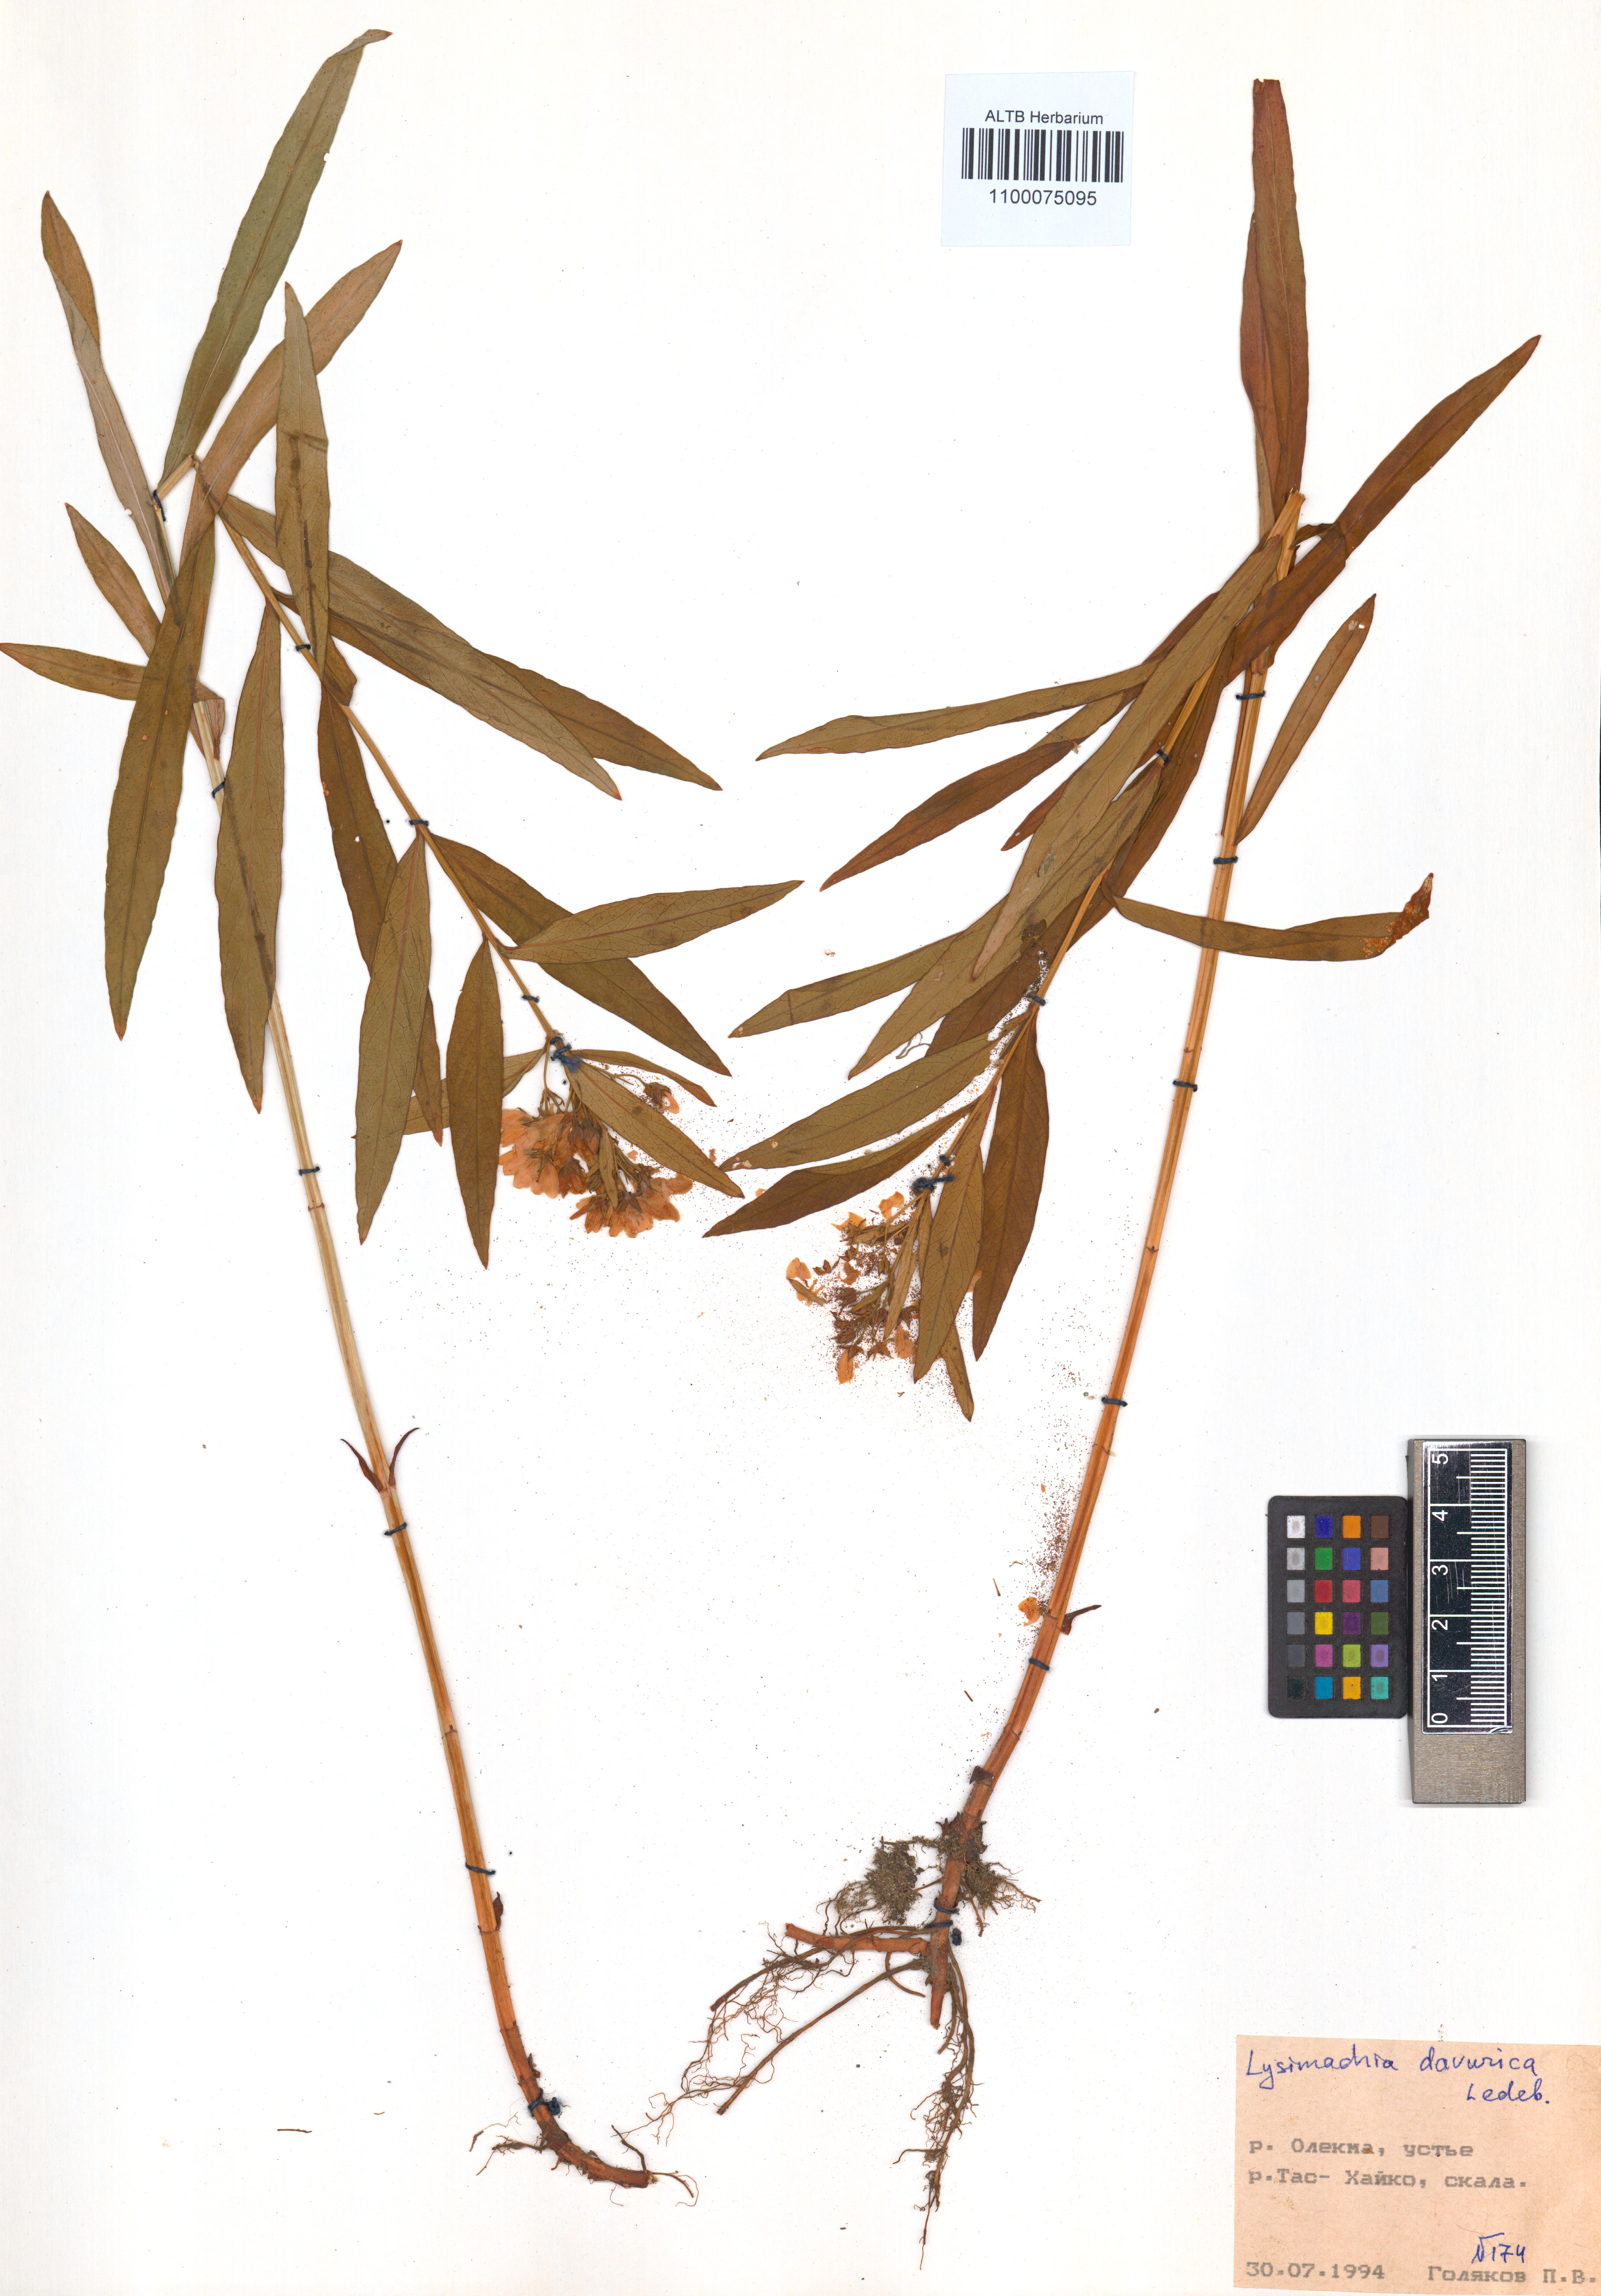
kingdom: Plantae
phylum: Tracheophyta
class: Magnoliopsida
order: Ericales
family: Primulaceae
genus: Lysimachia
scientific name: Lysimachia davurica
